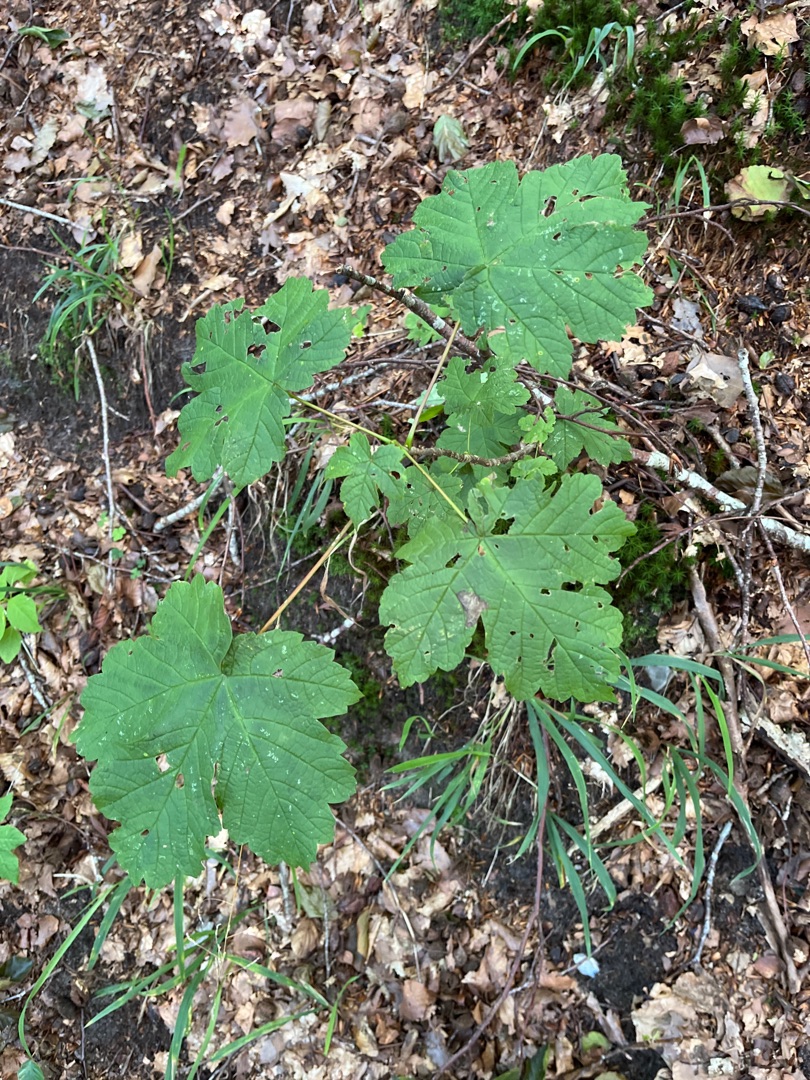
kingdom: Plantae
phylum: Tracheophyta
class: Magnoliopsida
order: Sapindales
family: Sapindaceae
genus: Acer
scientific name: Acer pseudoplatanus
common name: Ahorn
